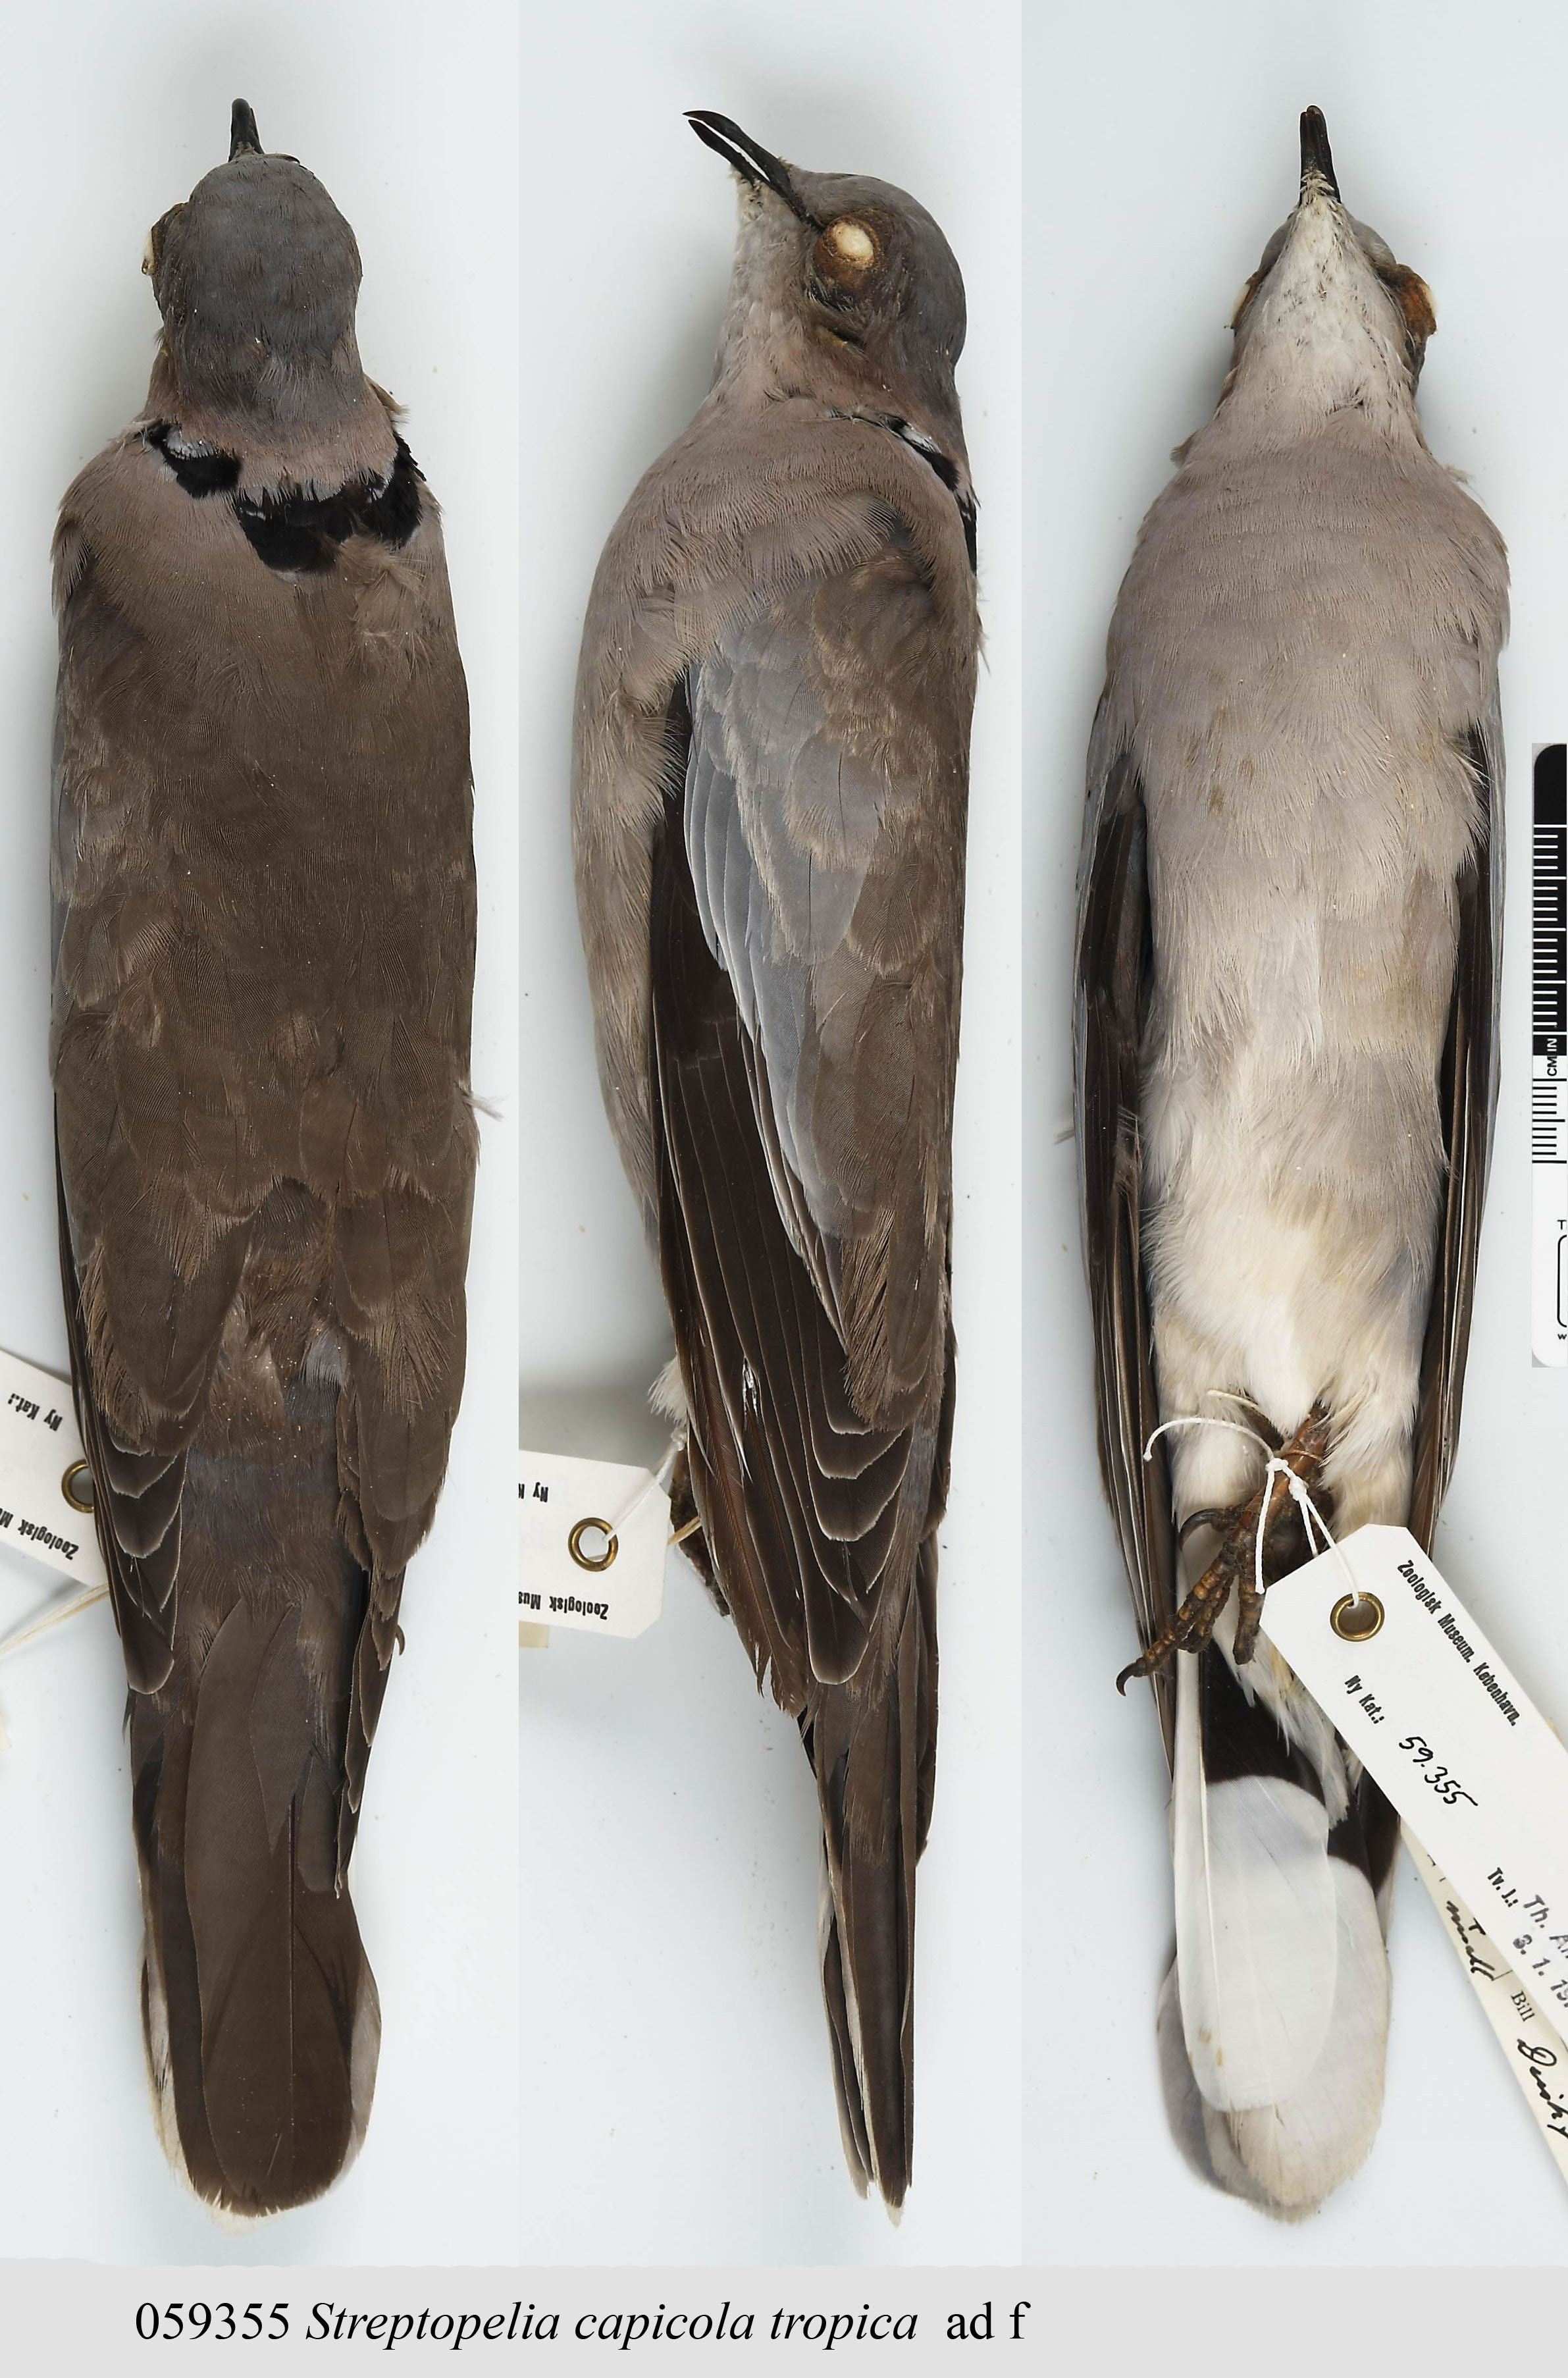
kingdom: Animalia
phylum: Chordata
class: Aves
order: Columbiformes
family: Columbidae
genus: Streptopelia
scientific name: Streptopelia capicola
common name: Ring-necked dove
